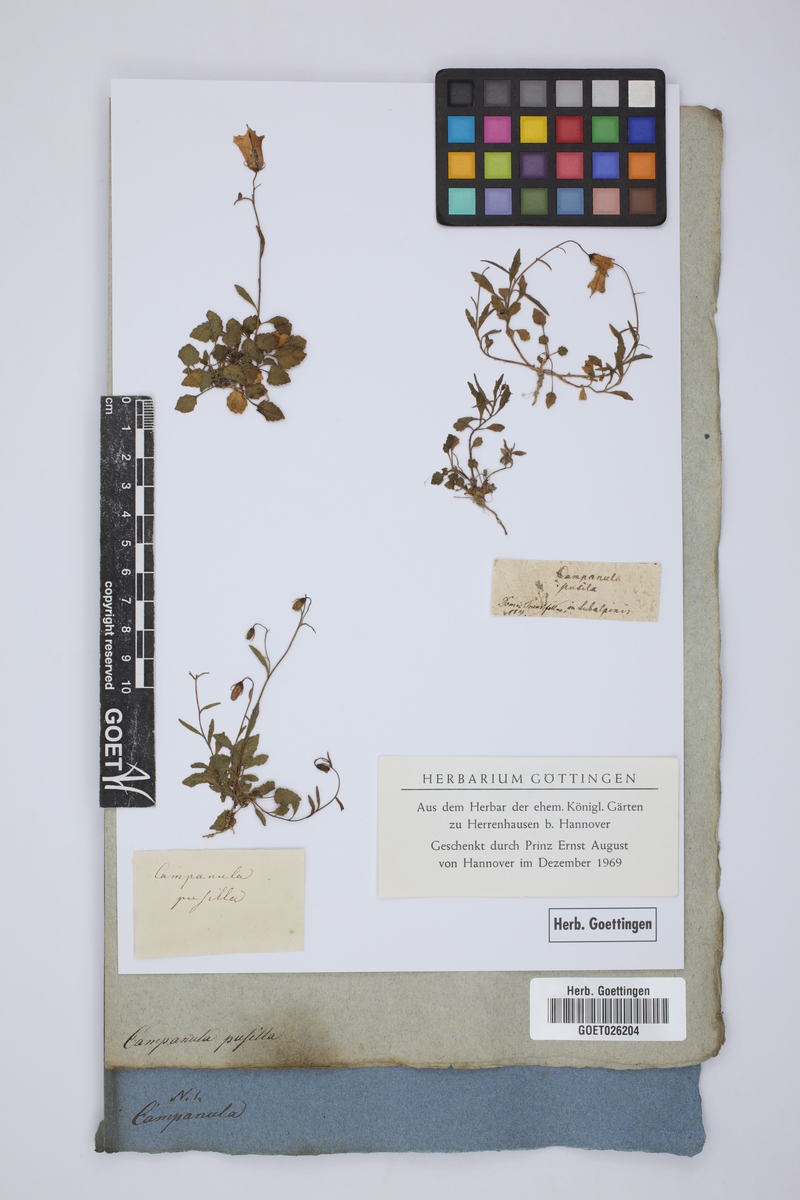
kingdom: Plantae
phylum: Tracheophyta
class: Magnoliopsida
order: Asterales
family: Campanulaceae
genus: Campanula
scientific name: Campanula cochleariifolia
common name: Fairies'-thimbles
